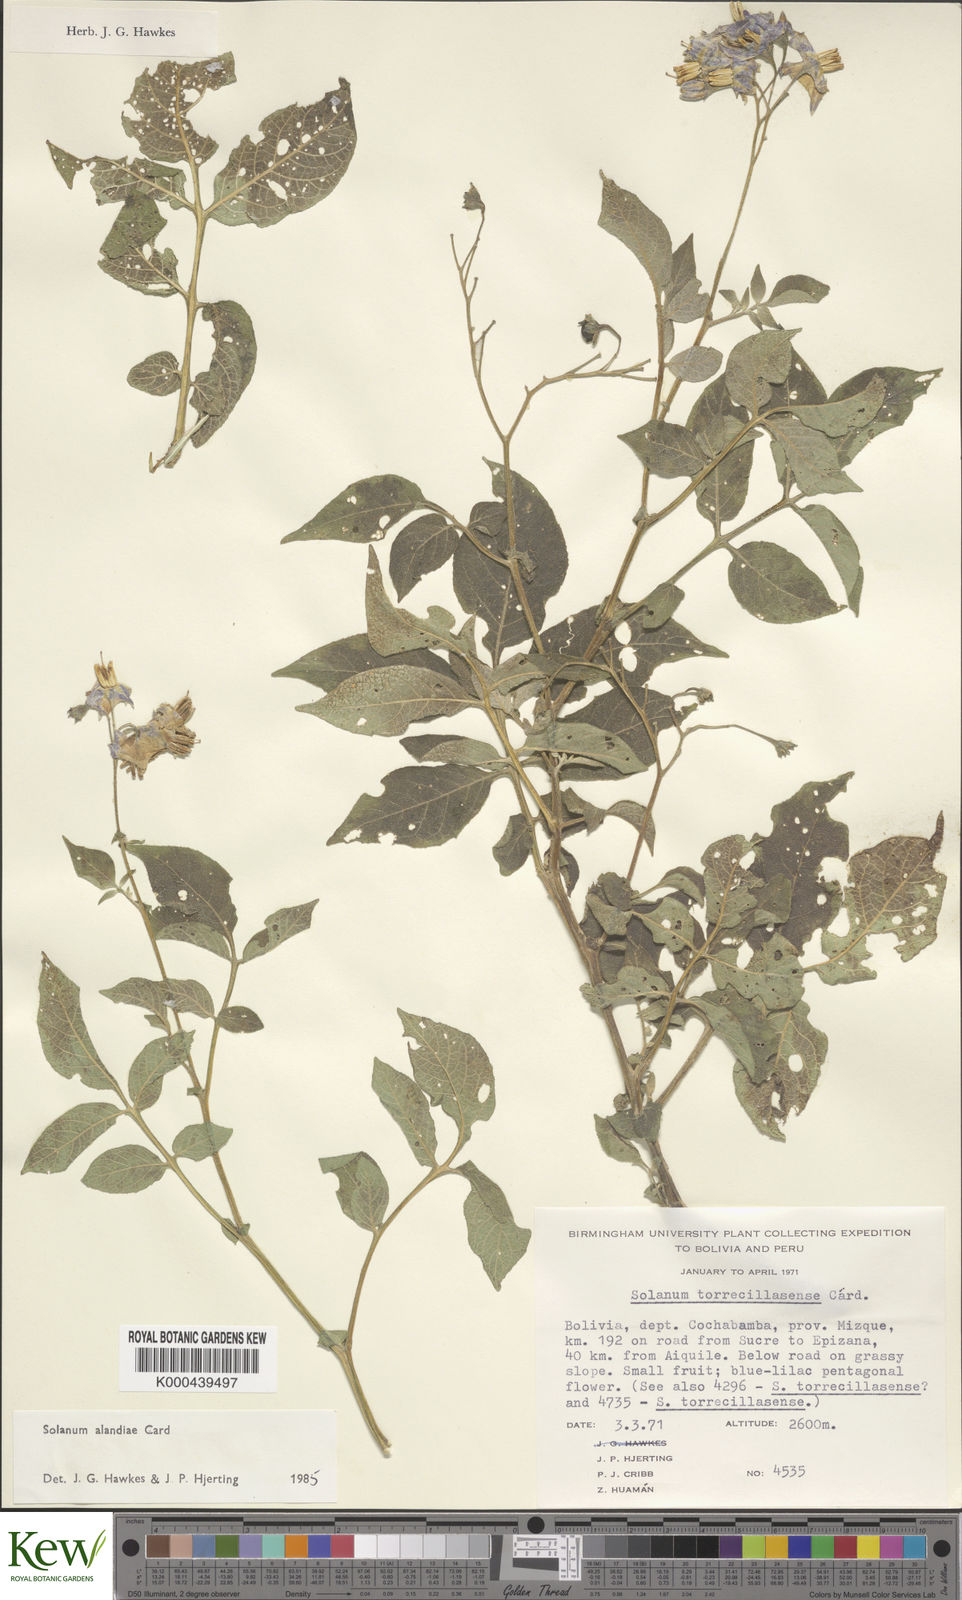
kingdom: Plantae
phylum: Tracheophyta
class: Magnoliopsida
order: Solanales
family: Solanaceae
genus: Solanum
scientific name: Solanum brevicaule
